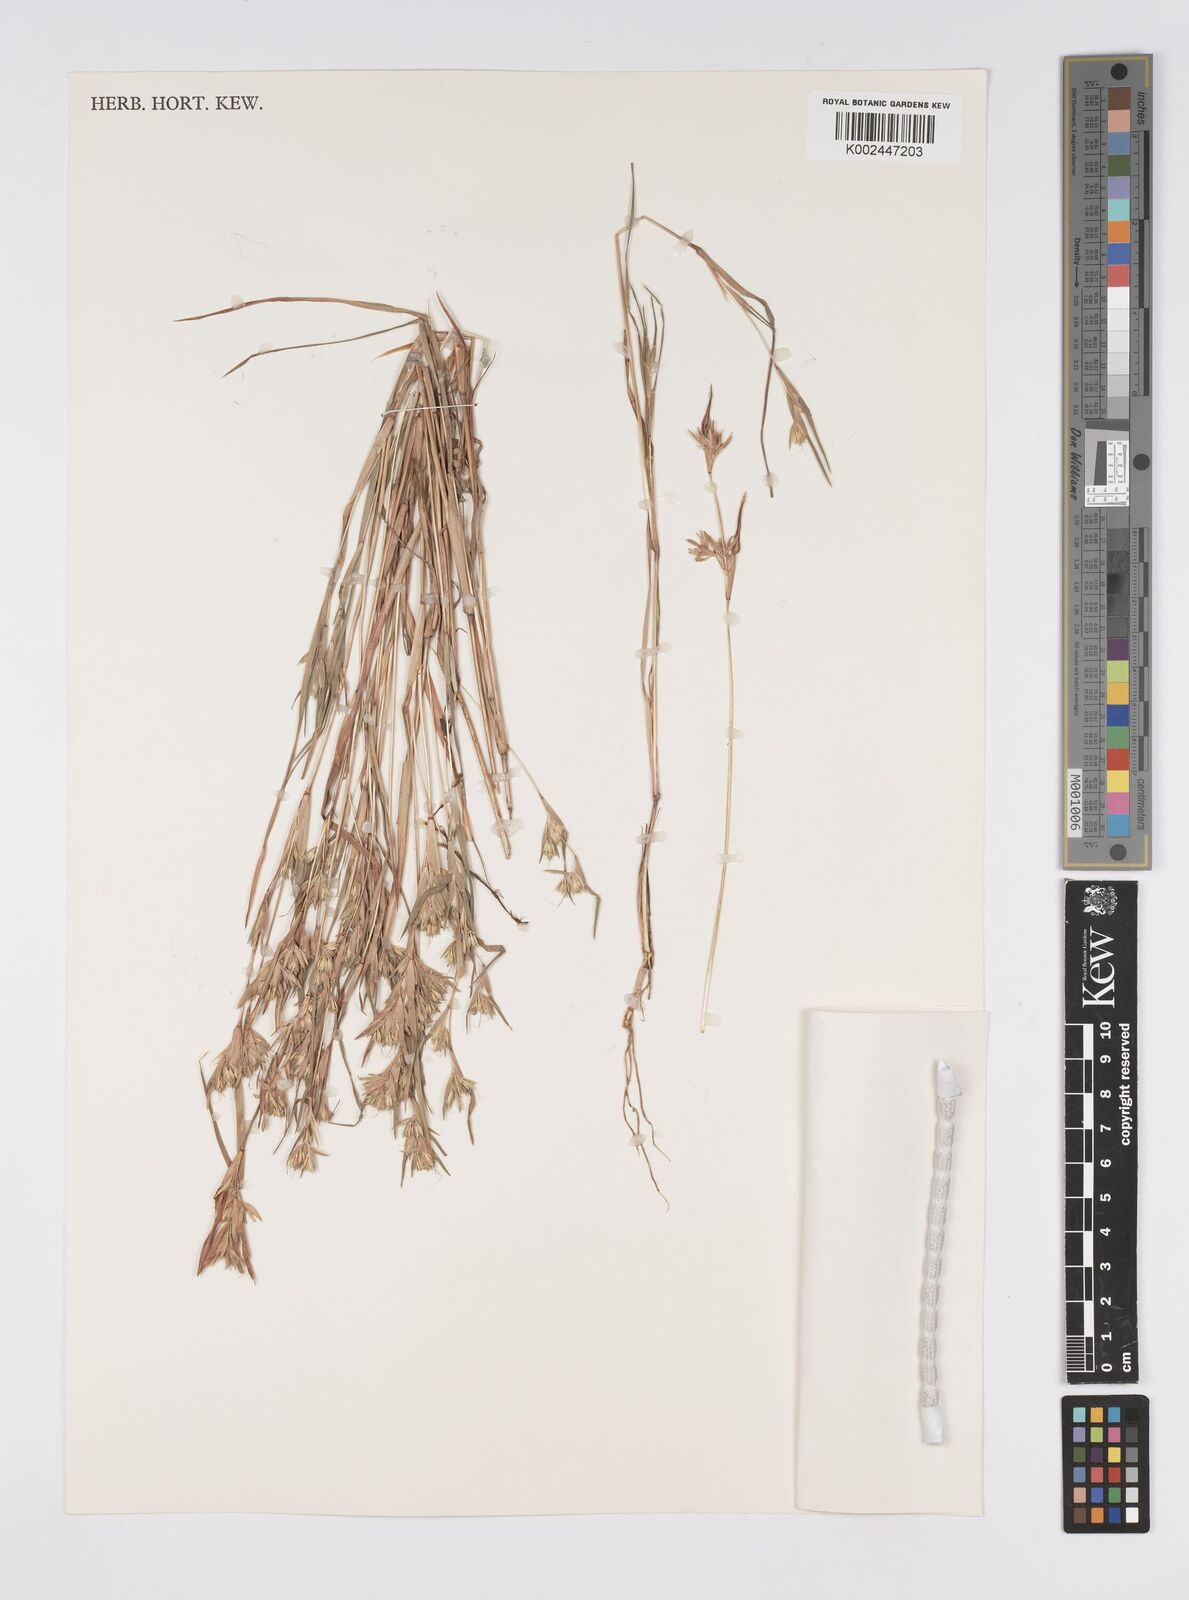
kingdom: Plantae
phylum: Tracheophyta
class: Liliopsida
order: Poales
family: Poaceae
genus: Iseilema
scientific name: Iseilema membranaceum
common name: Small flinders grass
